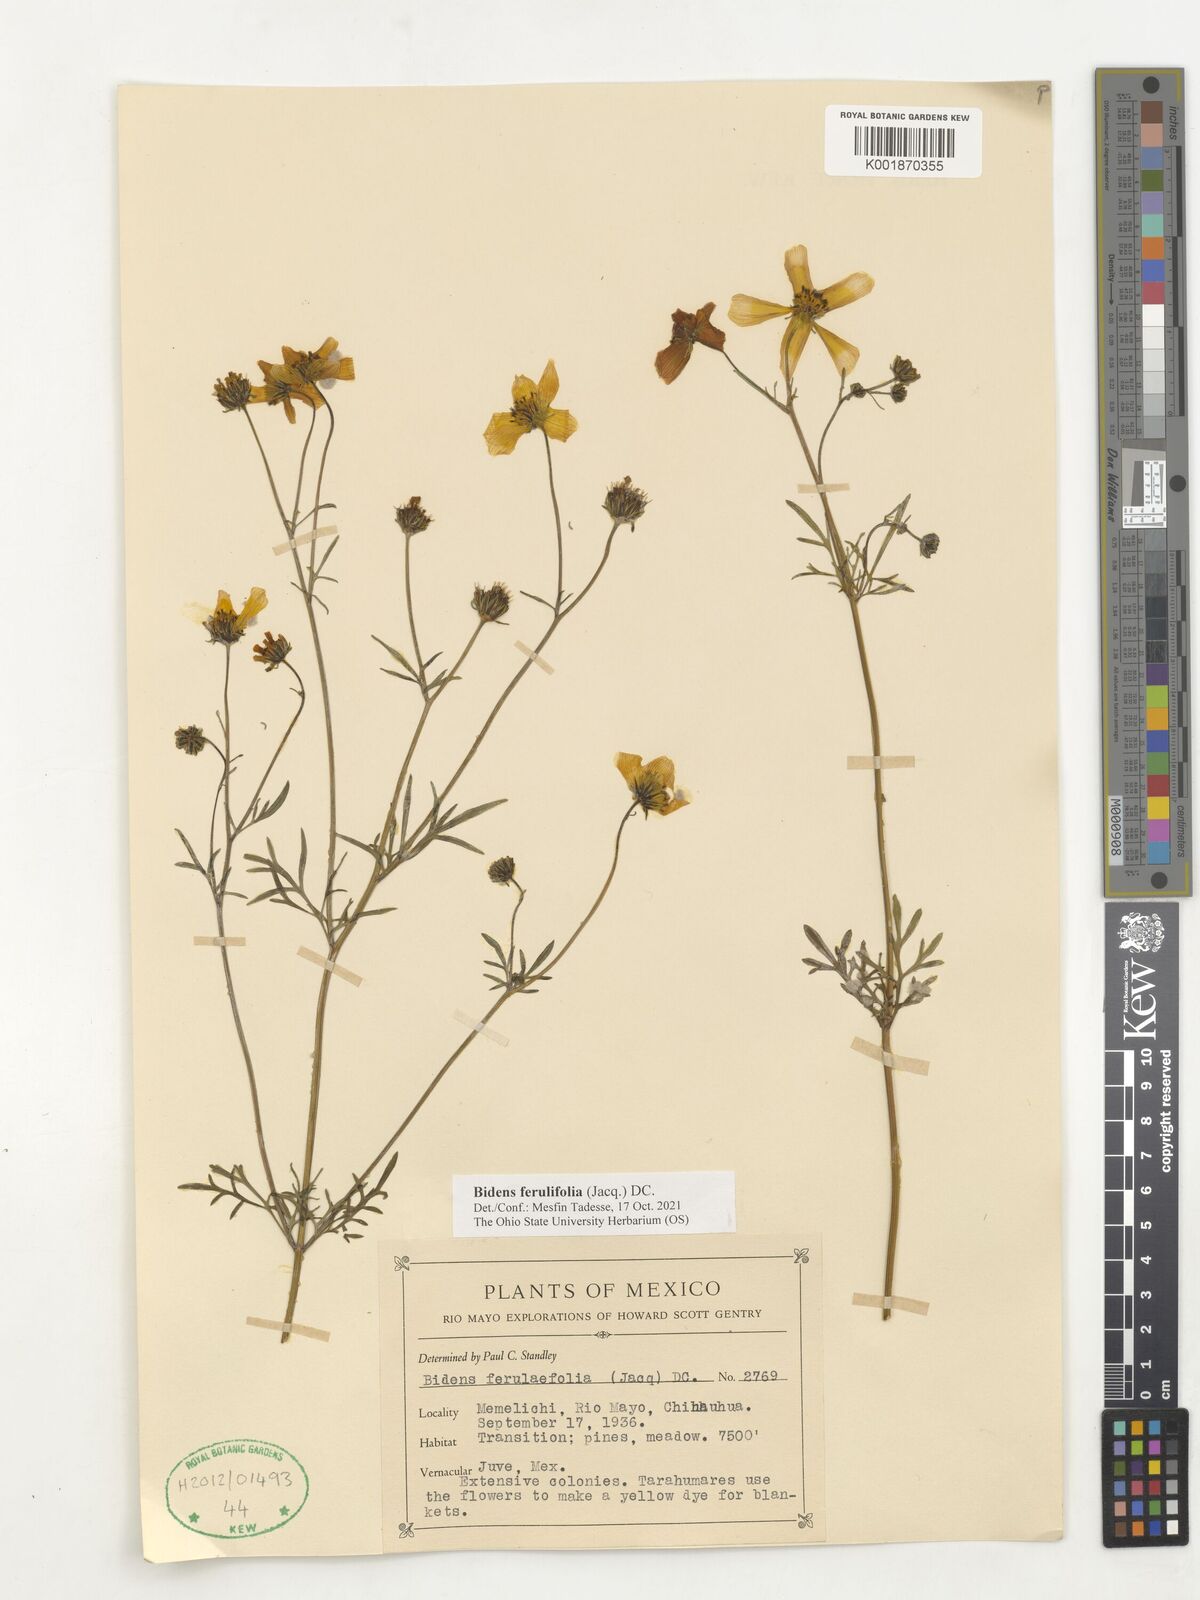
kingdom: Plantae
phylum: Tracheophyta
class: Magnoliopsida
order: Asterales
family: Asteraceae
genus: Bidens
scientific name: Bidens aurea
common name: Arizona beggar-ticks
